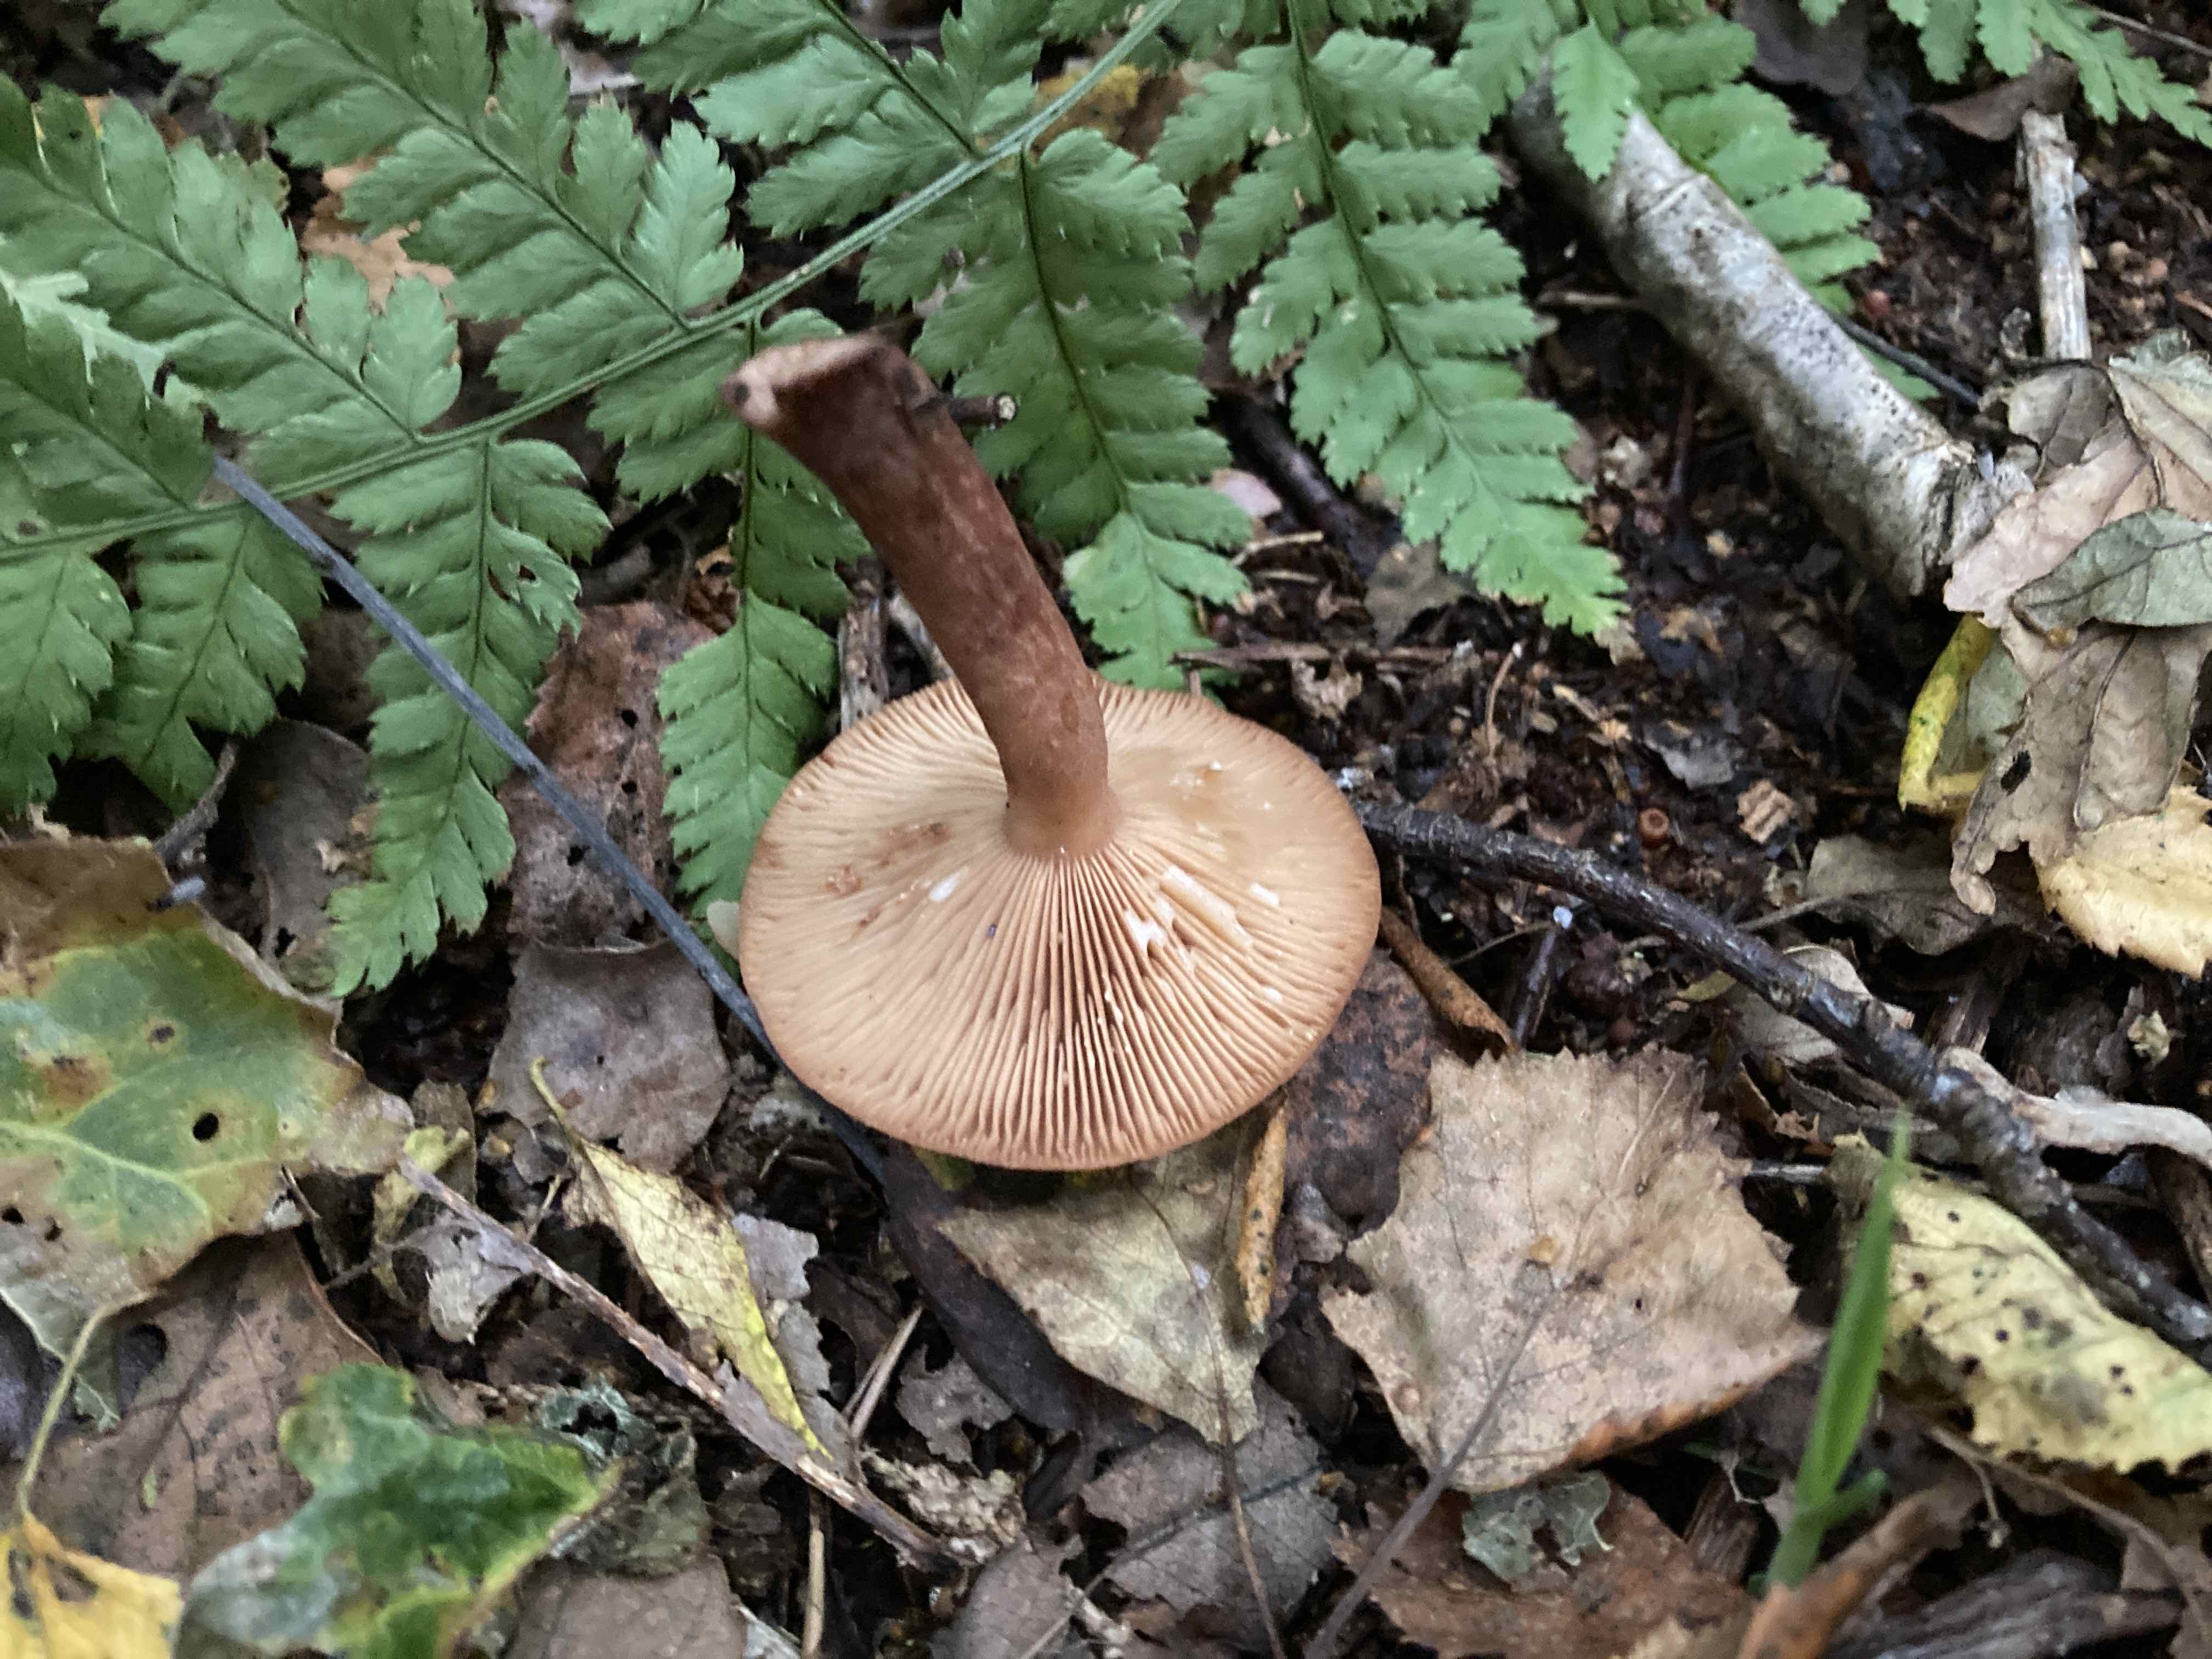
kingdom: Fungi
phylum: Basidiomycota
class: Agaricomycetes
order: Russulales
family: Russulaceae
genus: Lactarius
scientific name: Lactarius quietus
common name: ege-mælkehat
